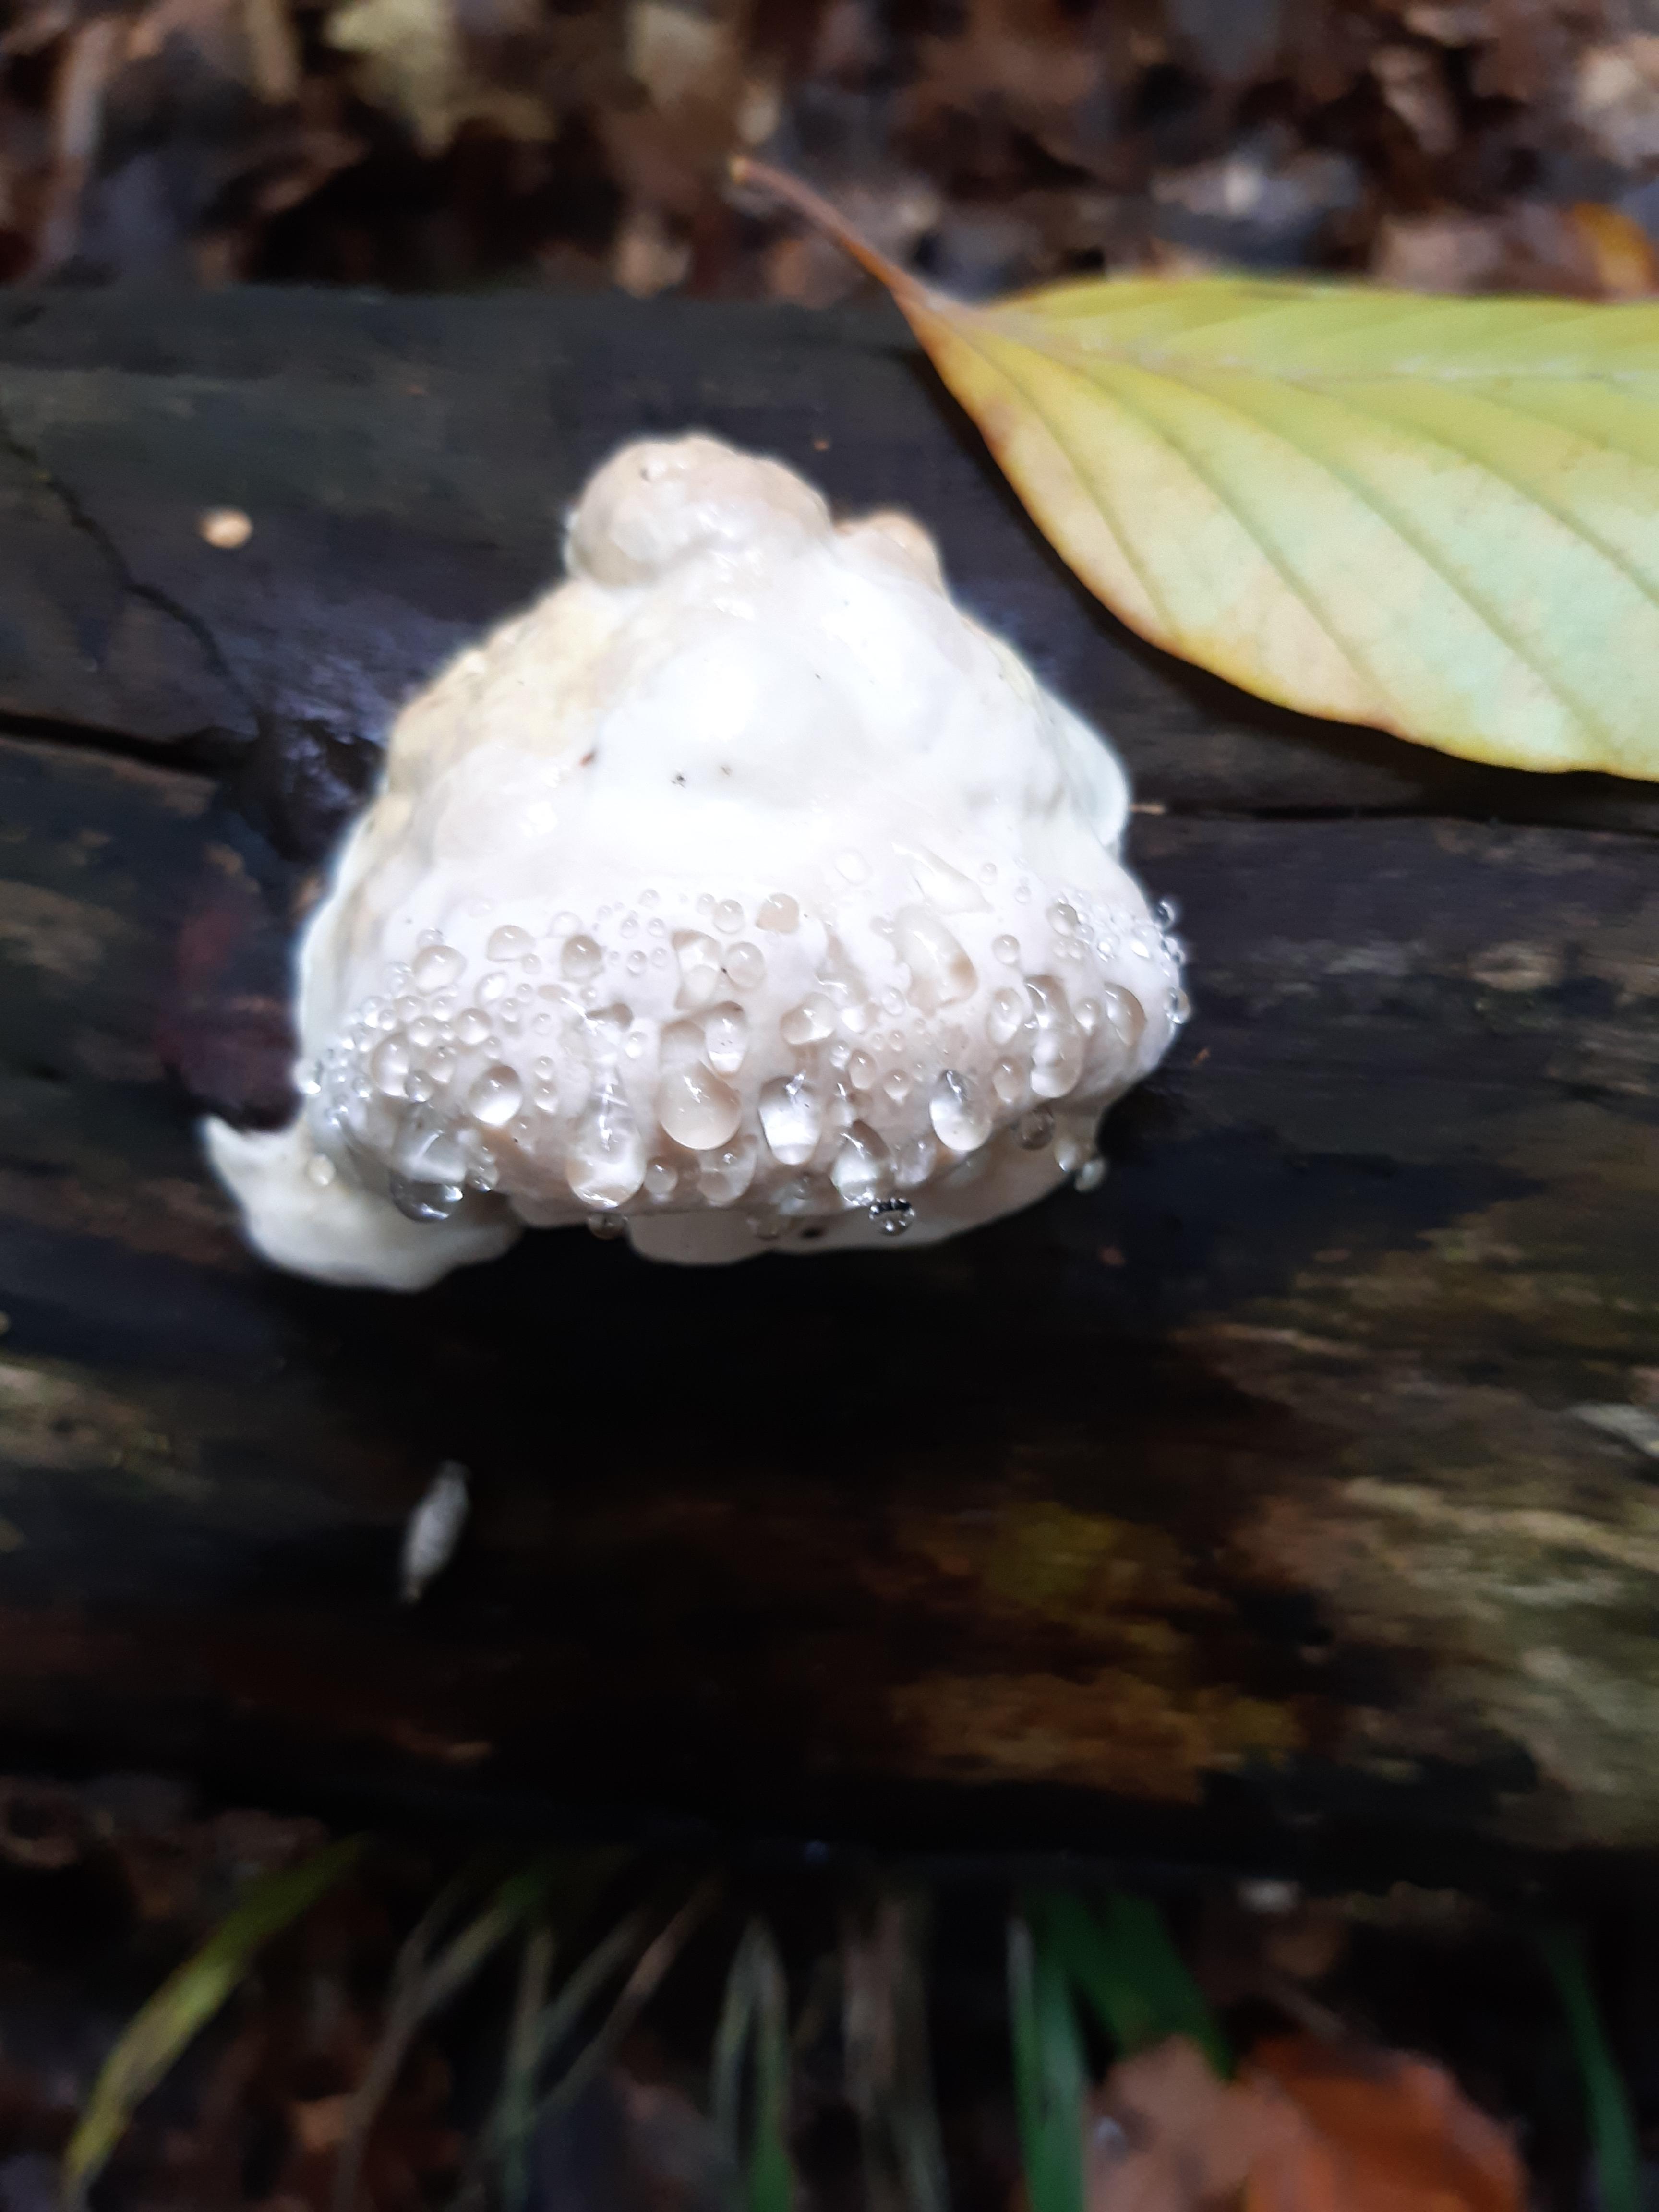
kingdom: Fungi
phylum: Basidiomycota
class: Agaricomycetes
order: Polyporales
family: Fomitopsidaceae
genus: Fomitopsis
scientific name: Fomitopsis pinicola
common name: randbæltet hovporesvamp
